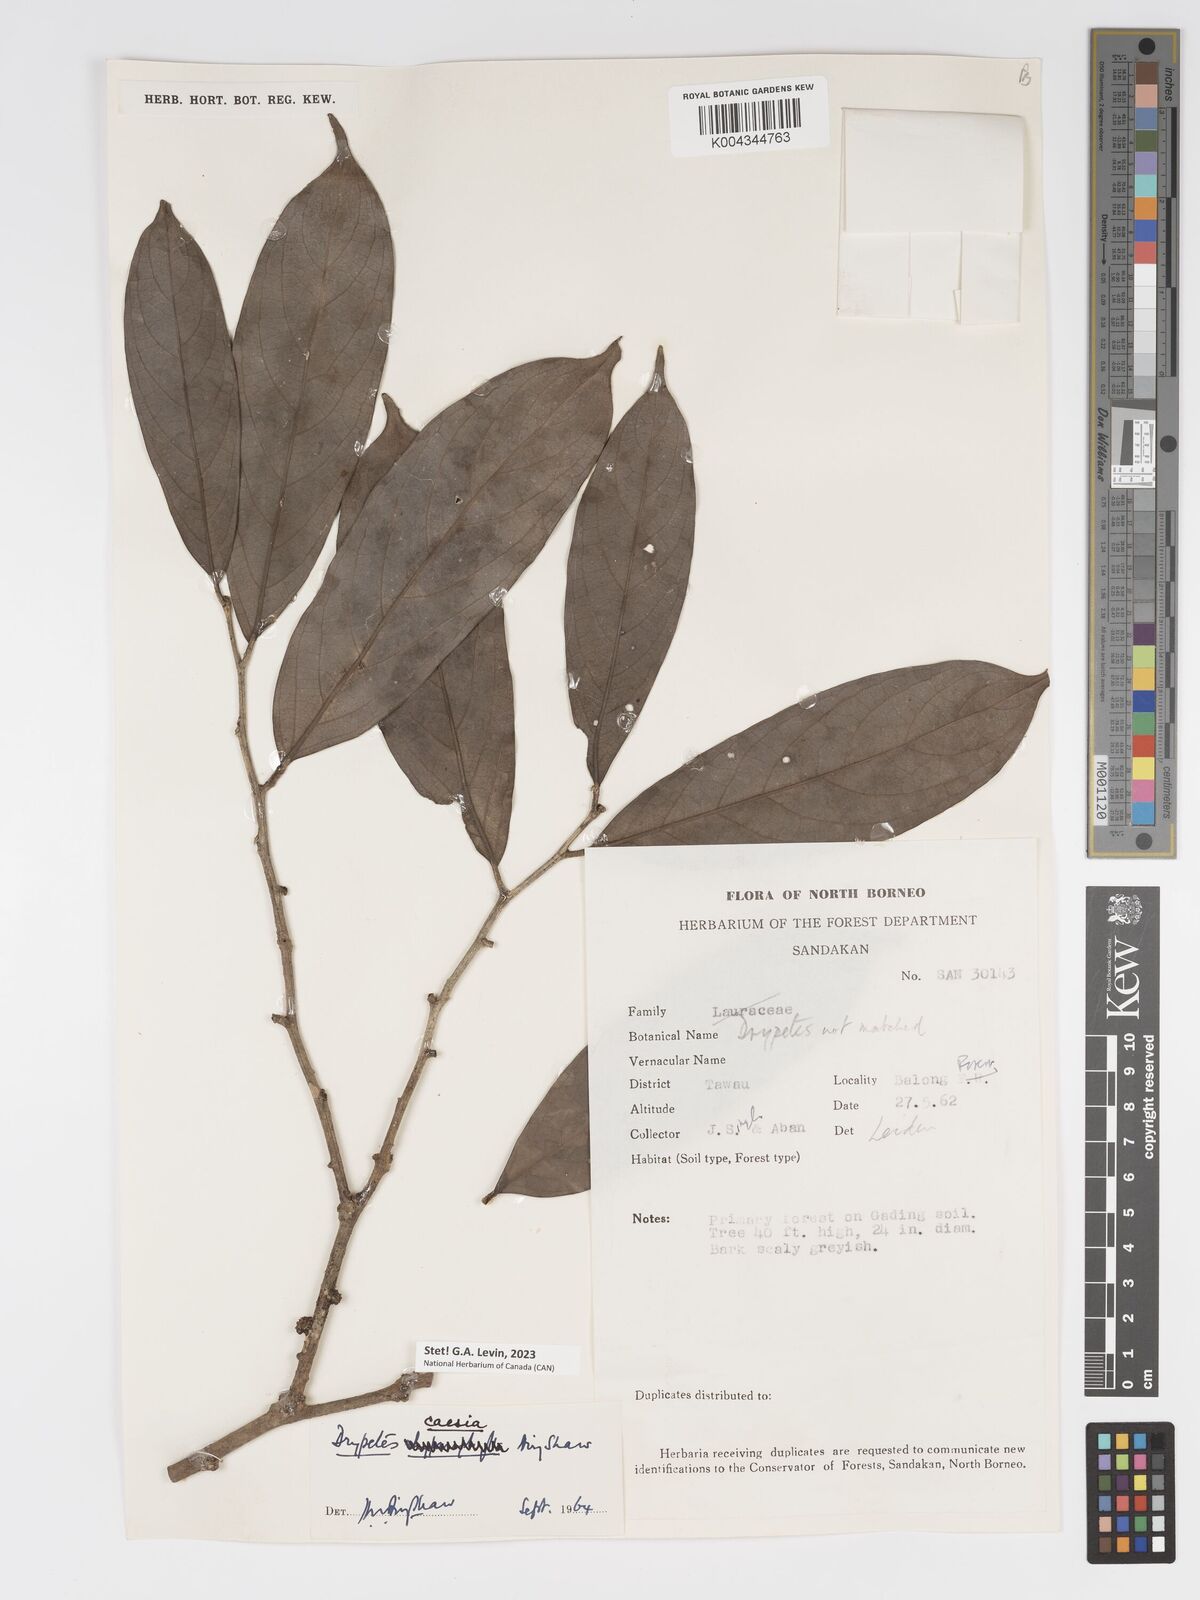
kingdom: Plantae
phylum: Tracheophyta
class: Magnoliopsida
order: Malpighiales
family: Putranjivaceae
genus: Drypetes
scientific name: Drypetes caesia
